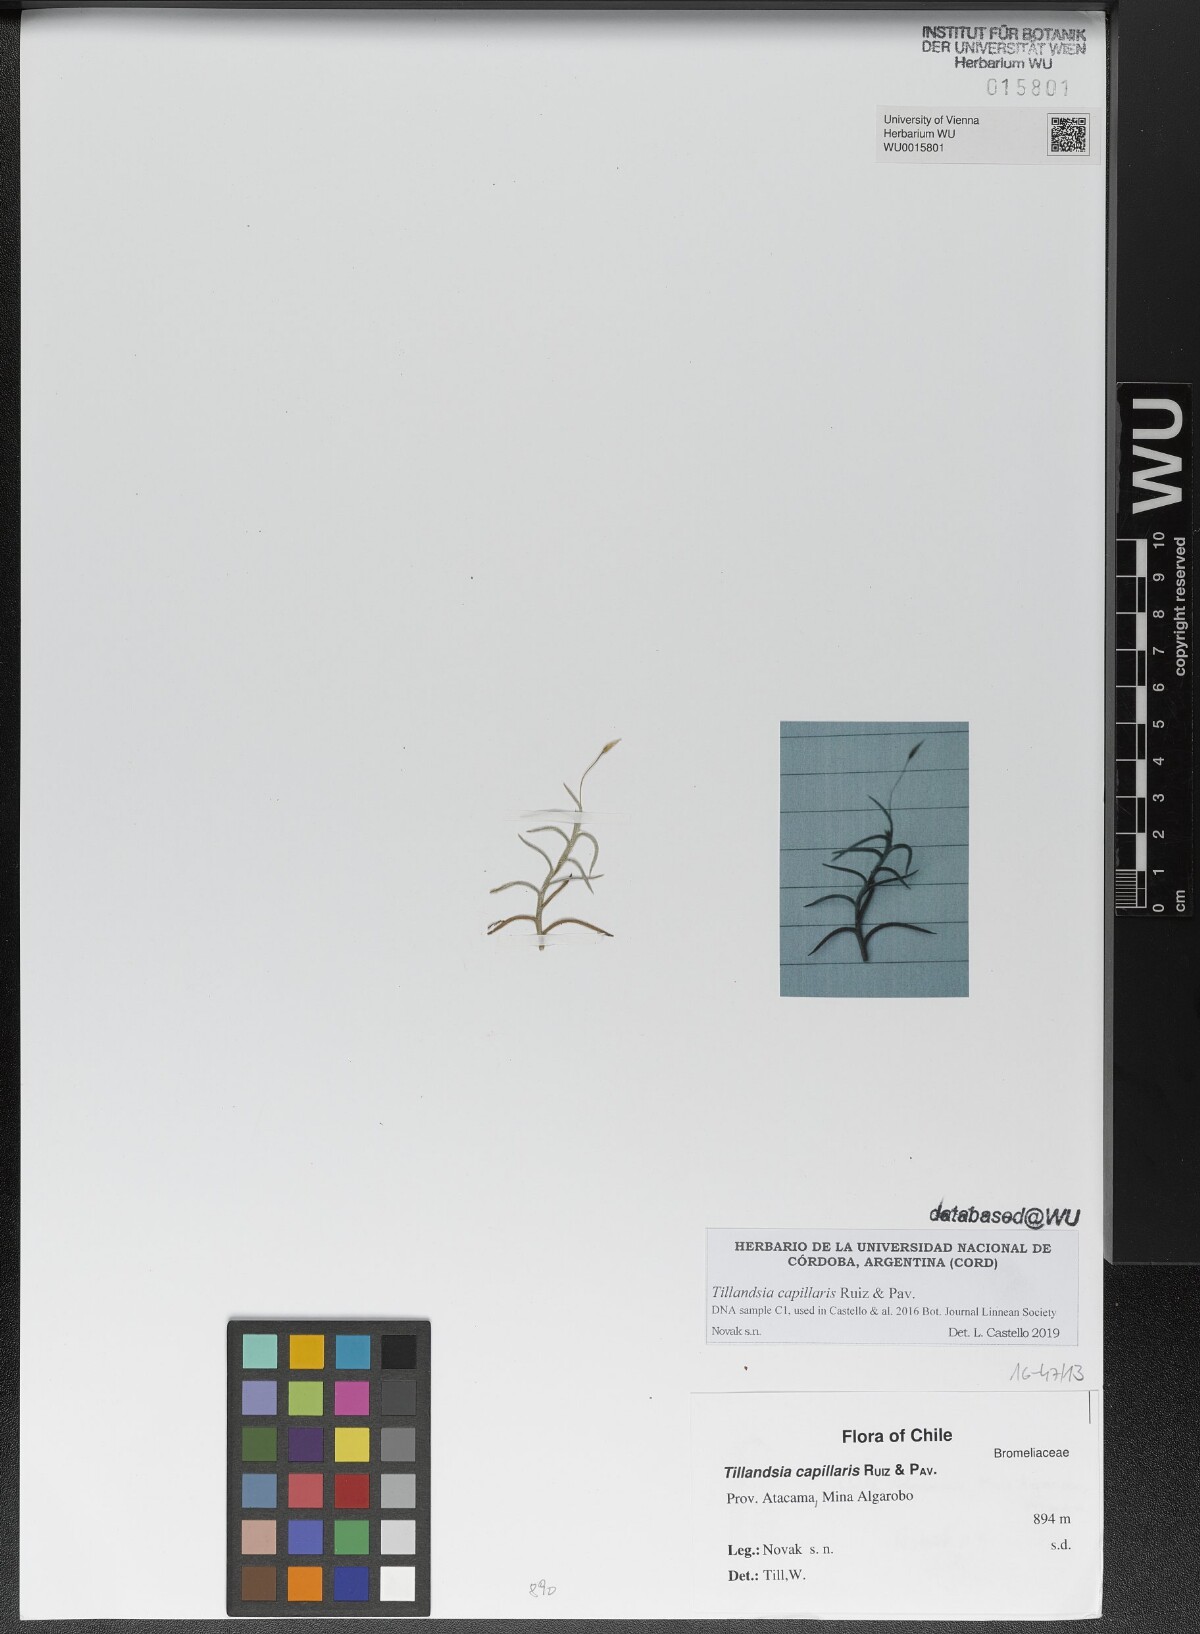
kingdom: Plantae
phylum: Tracheophyta
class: Liliopsida
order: Poales
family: Bromeliaceae
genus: Tillandsia
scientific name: Tillandsia capillaris
